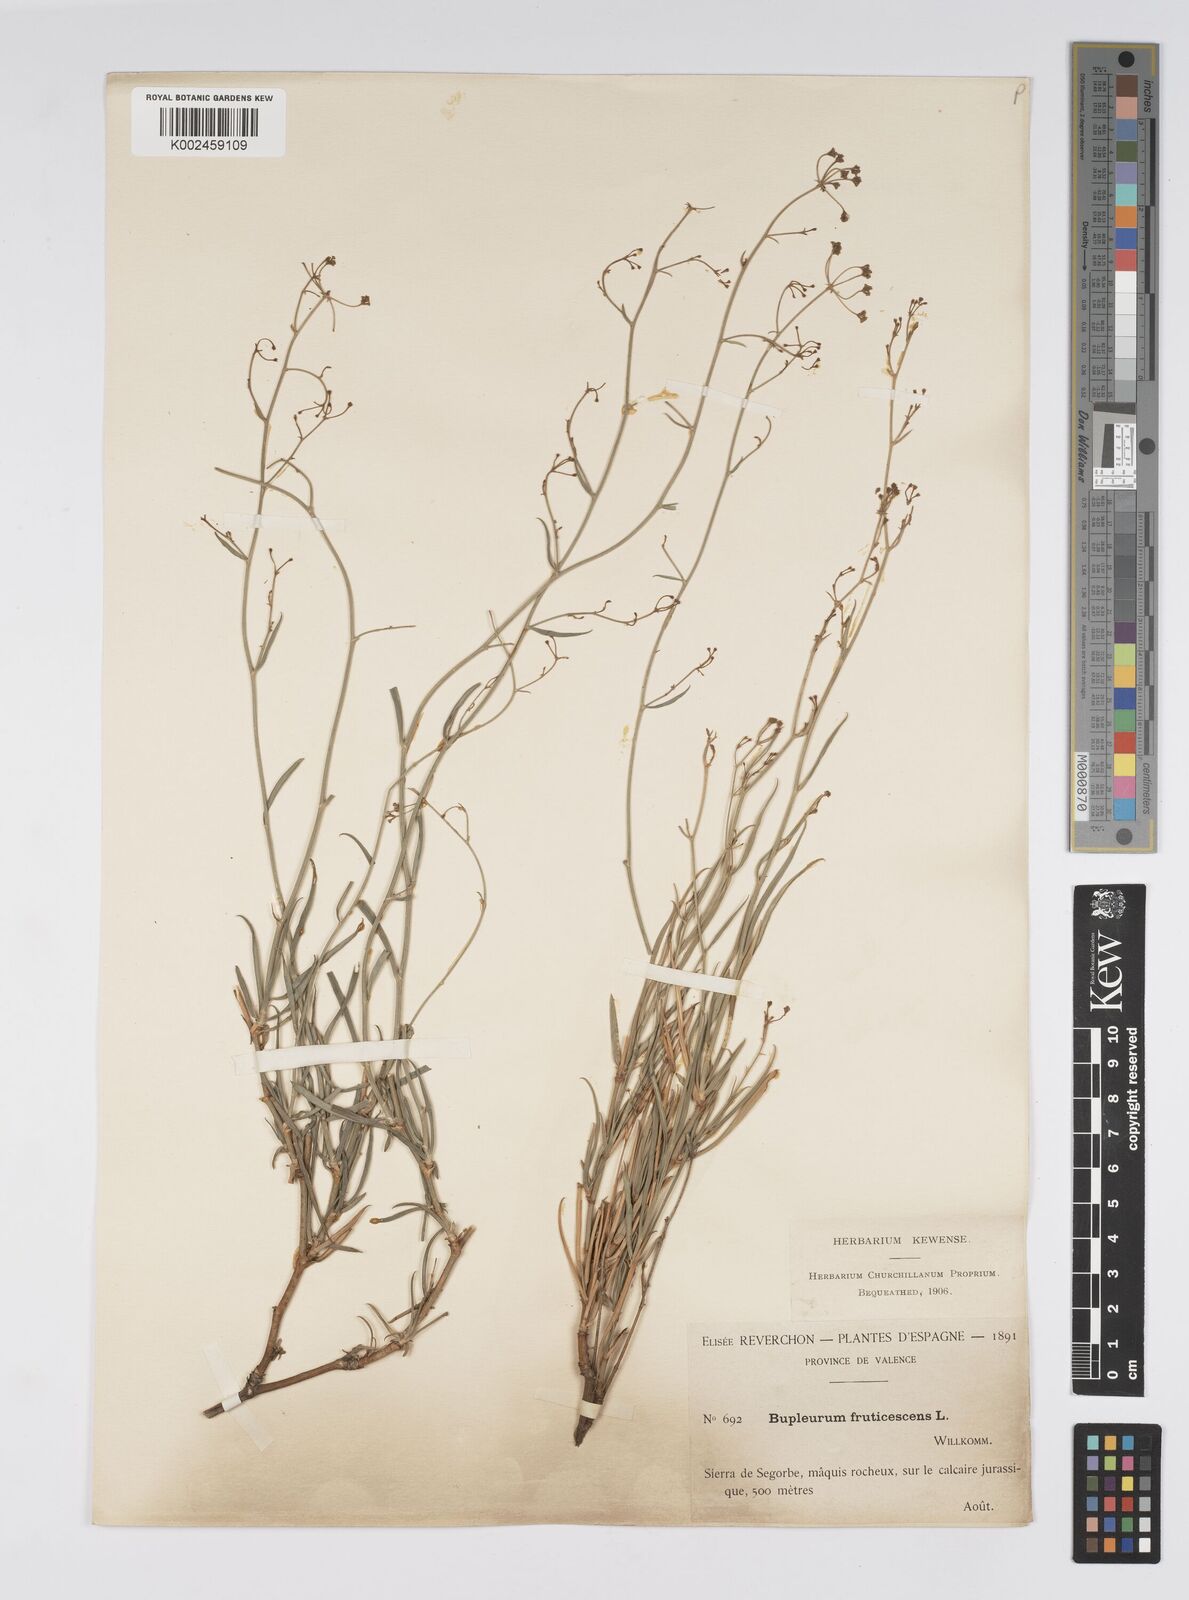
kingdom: Plantae
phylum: Tracheophyta
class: Magnoliopsida
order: Apiales
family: Apiaceae
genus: Bupleurum
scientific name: Bupleurum fruticescens
